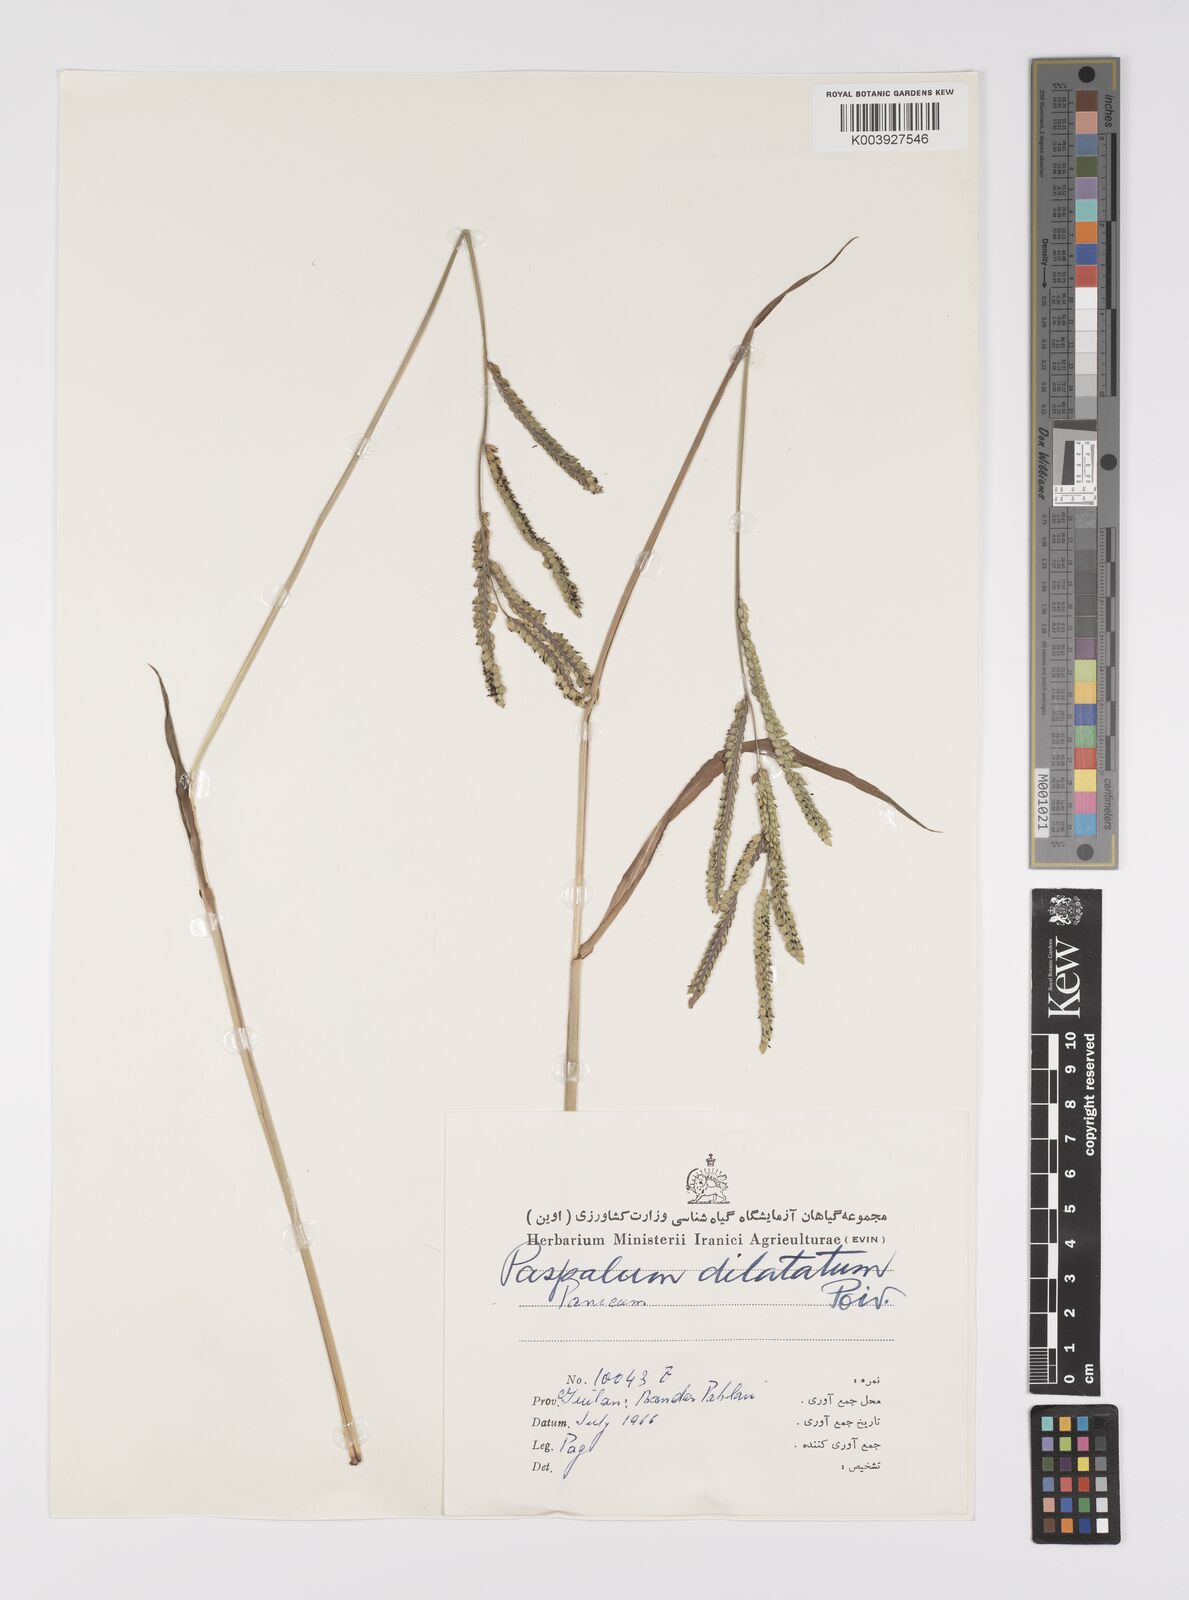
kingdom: Plantae
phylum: Tracheophyta
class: Liliopsida
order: Poales
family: Poaceae
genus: Paspalum
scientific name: Paspalum dilatatum
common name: Dallisgrass
